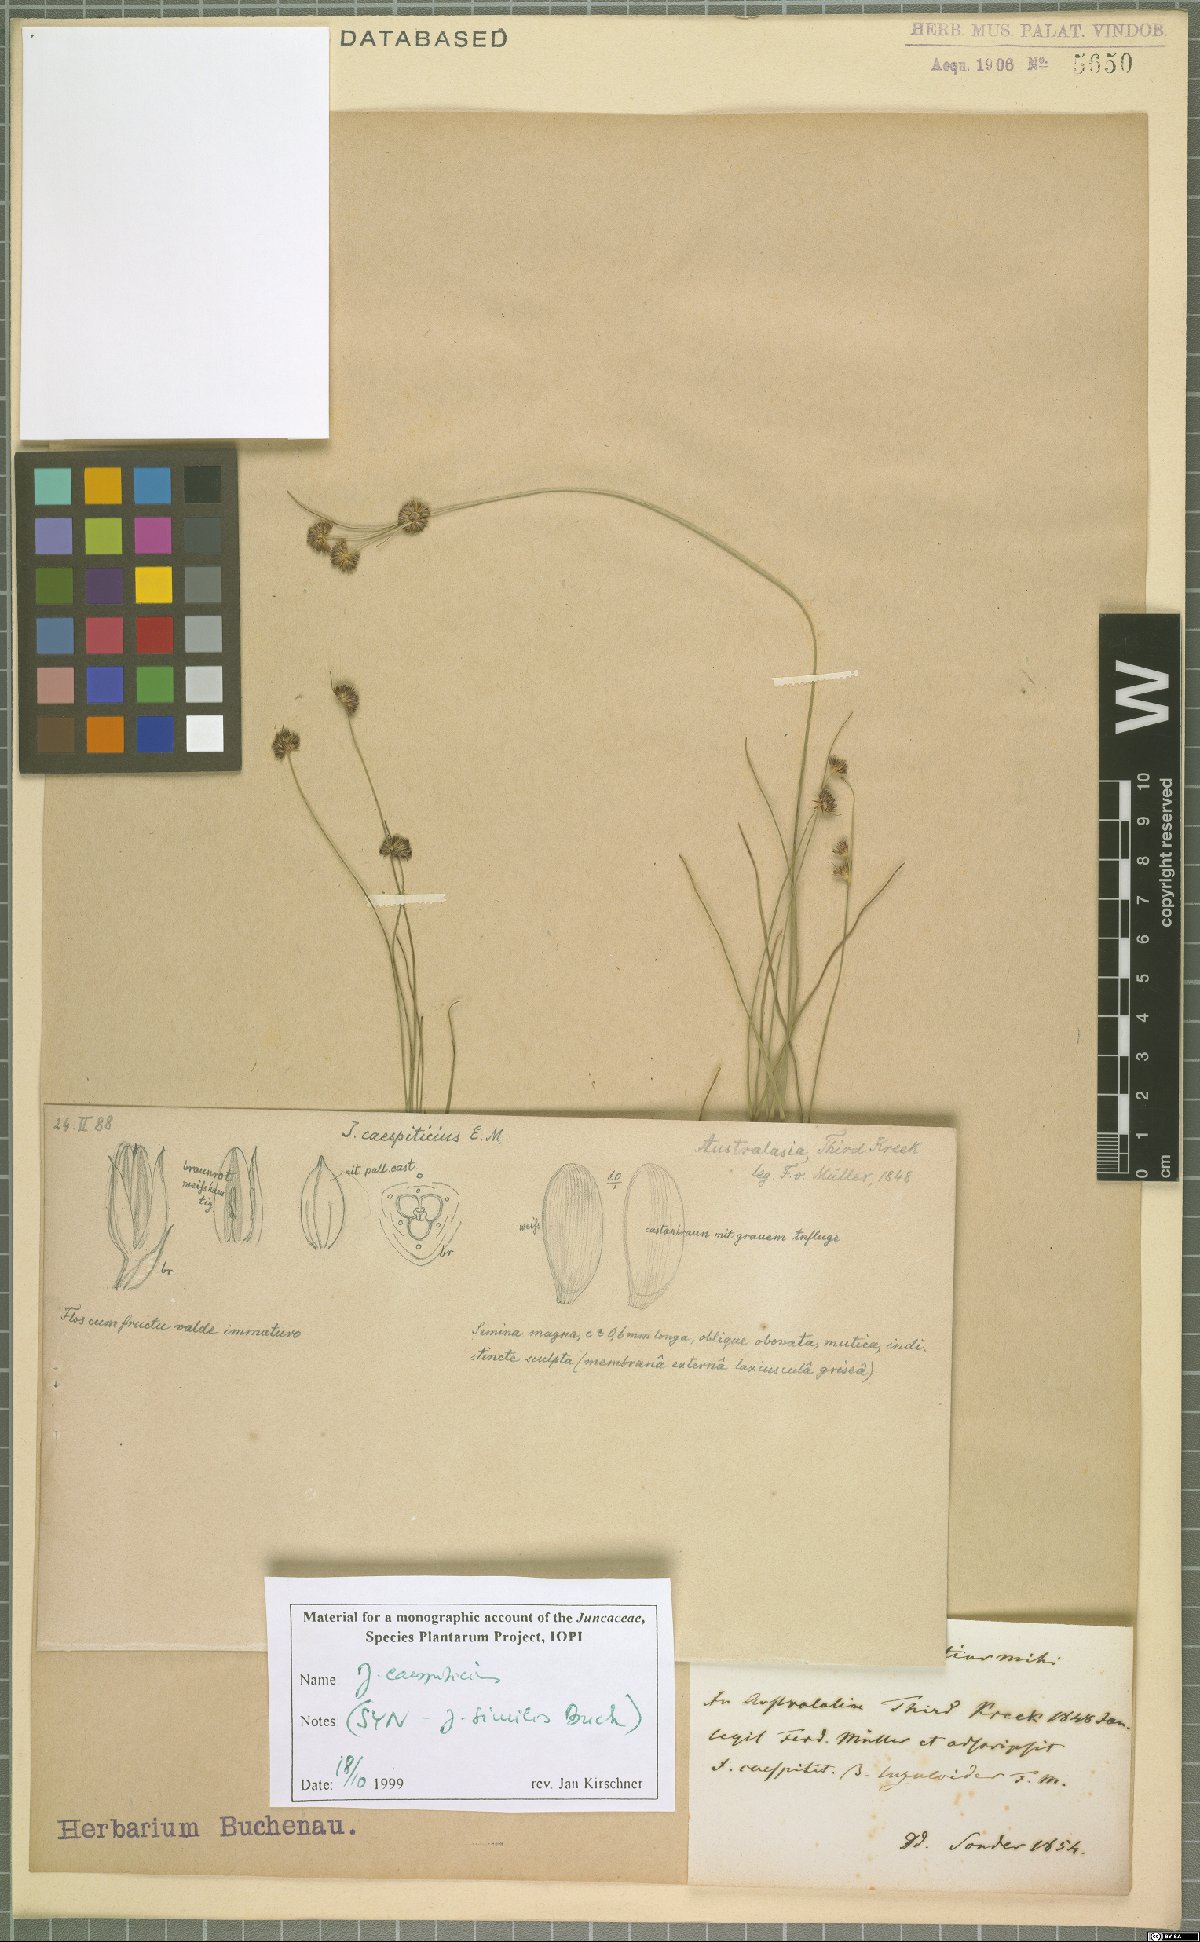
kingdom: Plantae
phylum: Tracheophyta
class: Liliopsida
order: Poales
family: Juncaceae
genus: Juncus
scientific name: Juncus caespiticius
